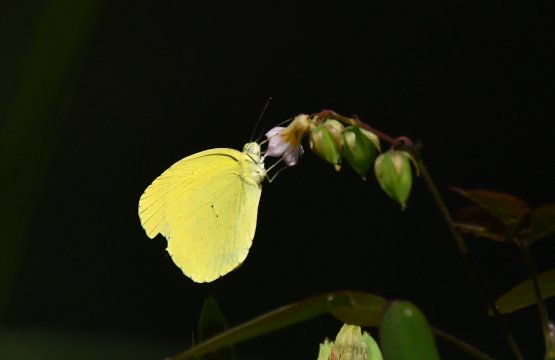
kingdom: Animalia
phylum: Arthropoda
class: Insecta
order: Lepidoptera
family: Pieridae
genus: Pyrisitia
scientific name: Pyrisitia nise
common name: Mimosa Yellow
